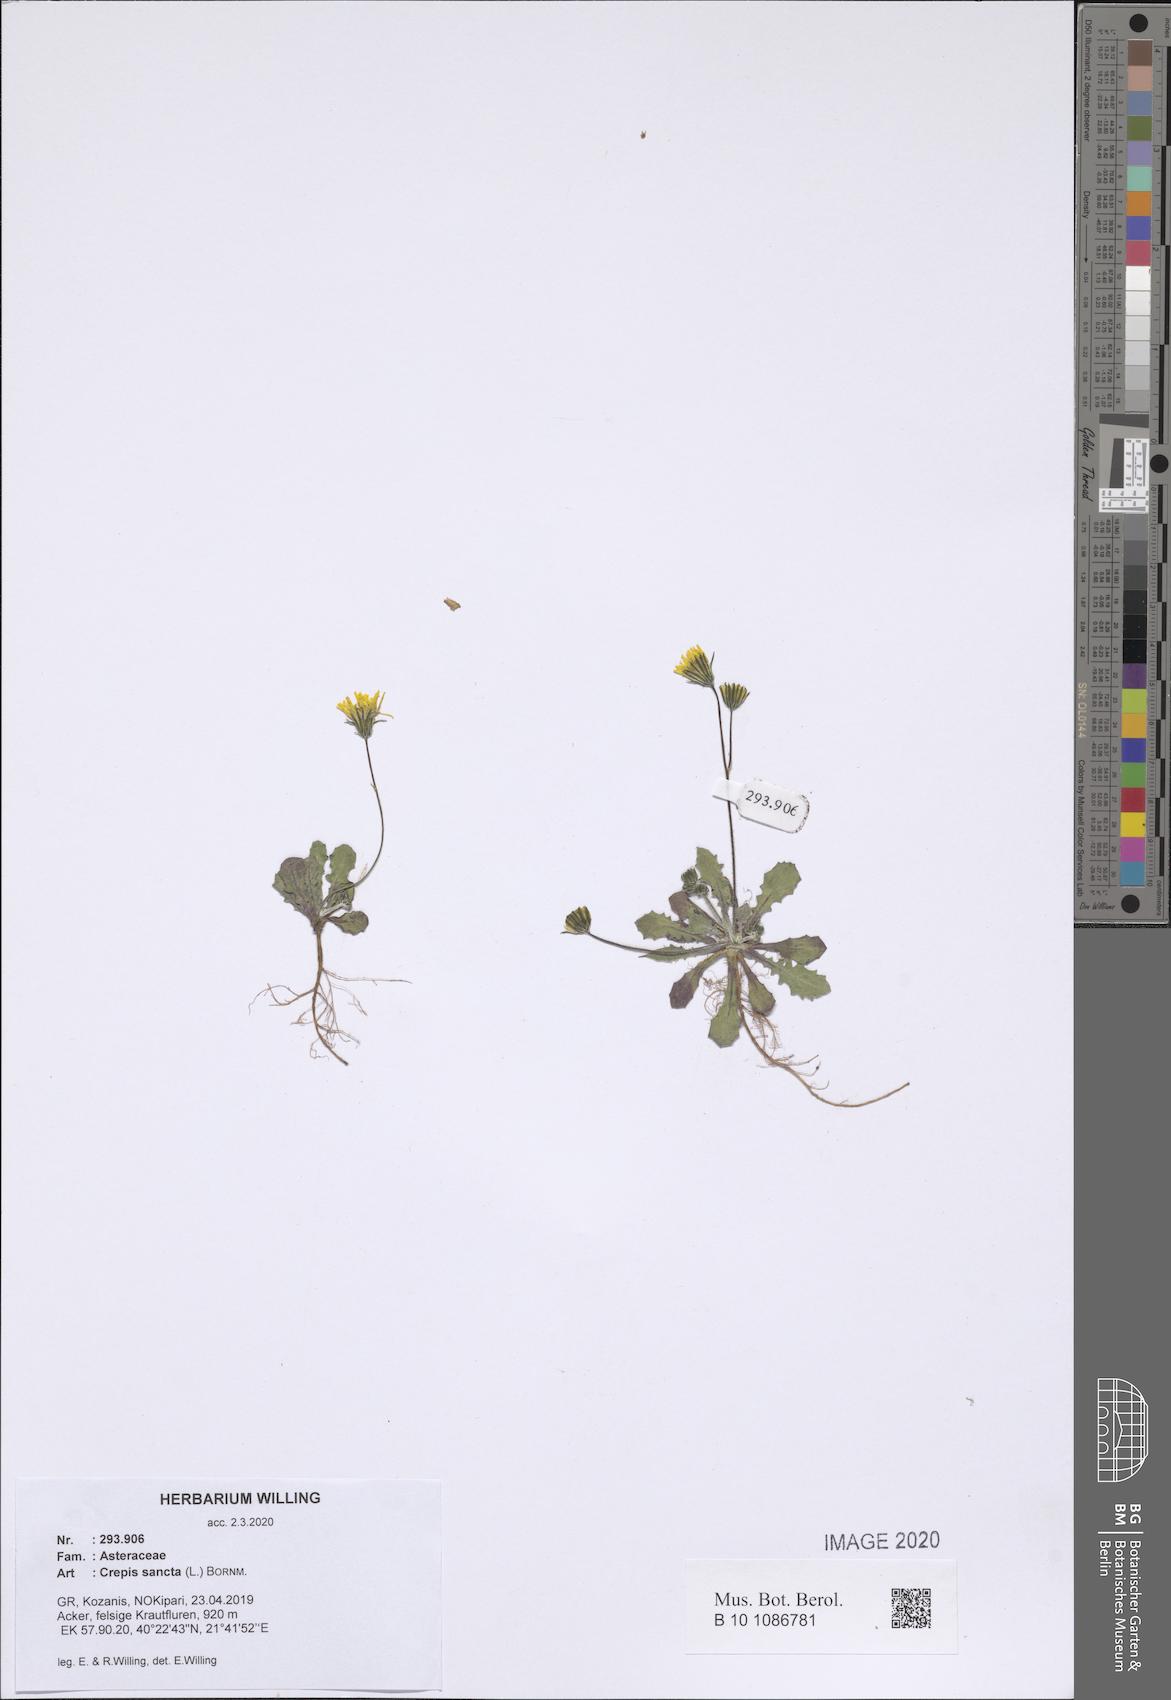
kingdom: Plantae
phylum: Tracheophyta
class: Magnoliopsida
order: Asterales
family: Asteraceae
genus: Crepis
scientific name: Crepis sancta
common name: Hawk's-beard
